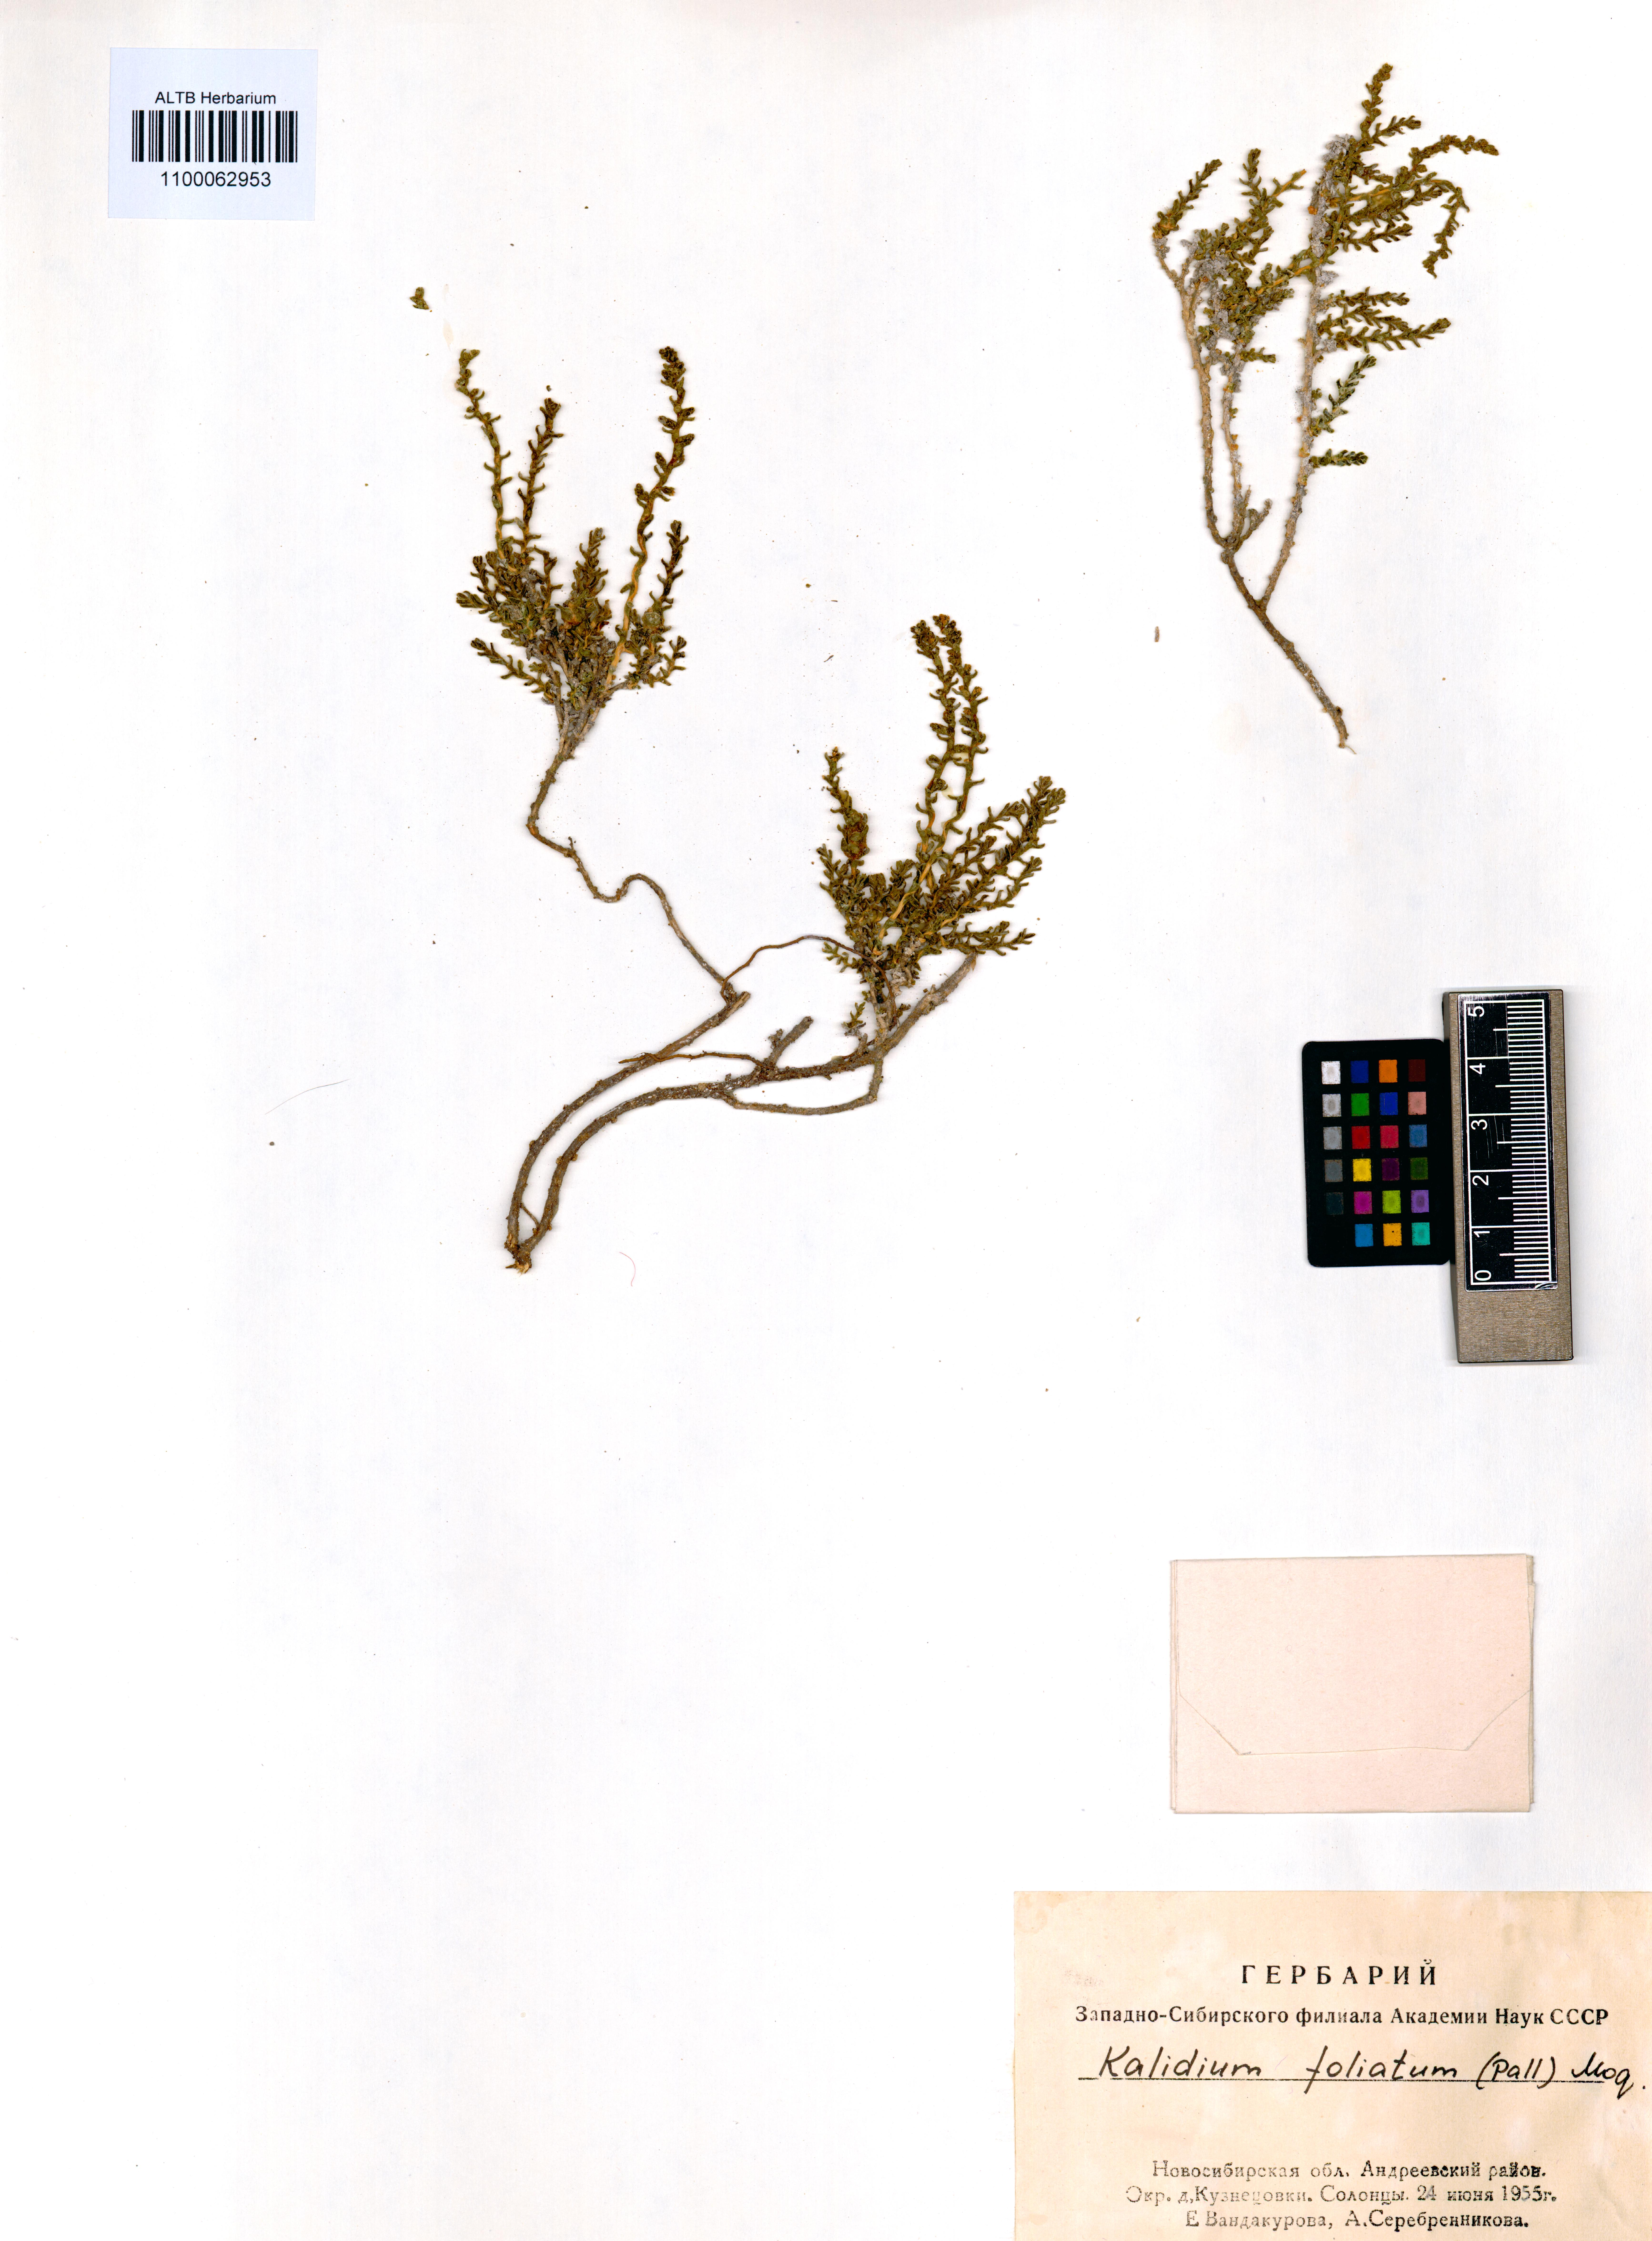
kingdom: Plantae
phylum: Tracheophyta
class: Magnoliopsida
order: Caryophyllales
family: Amaranthaceae
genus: Kalidium
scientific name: Kalidium foliatum
